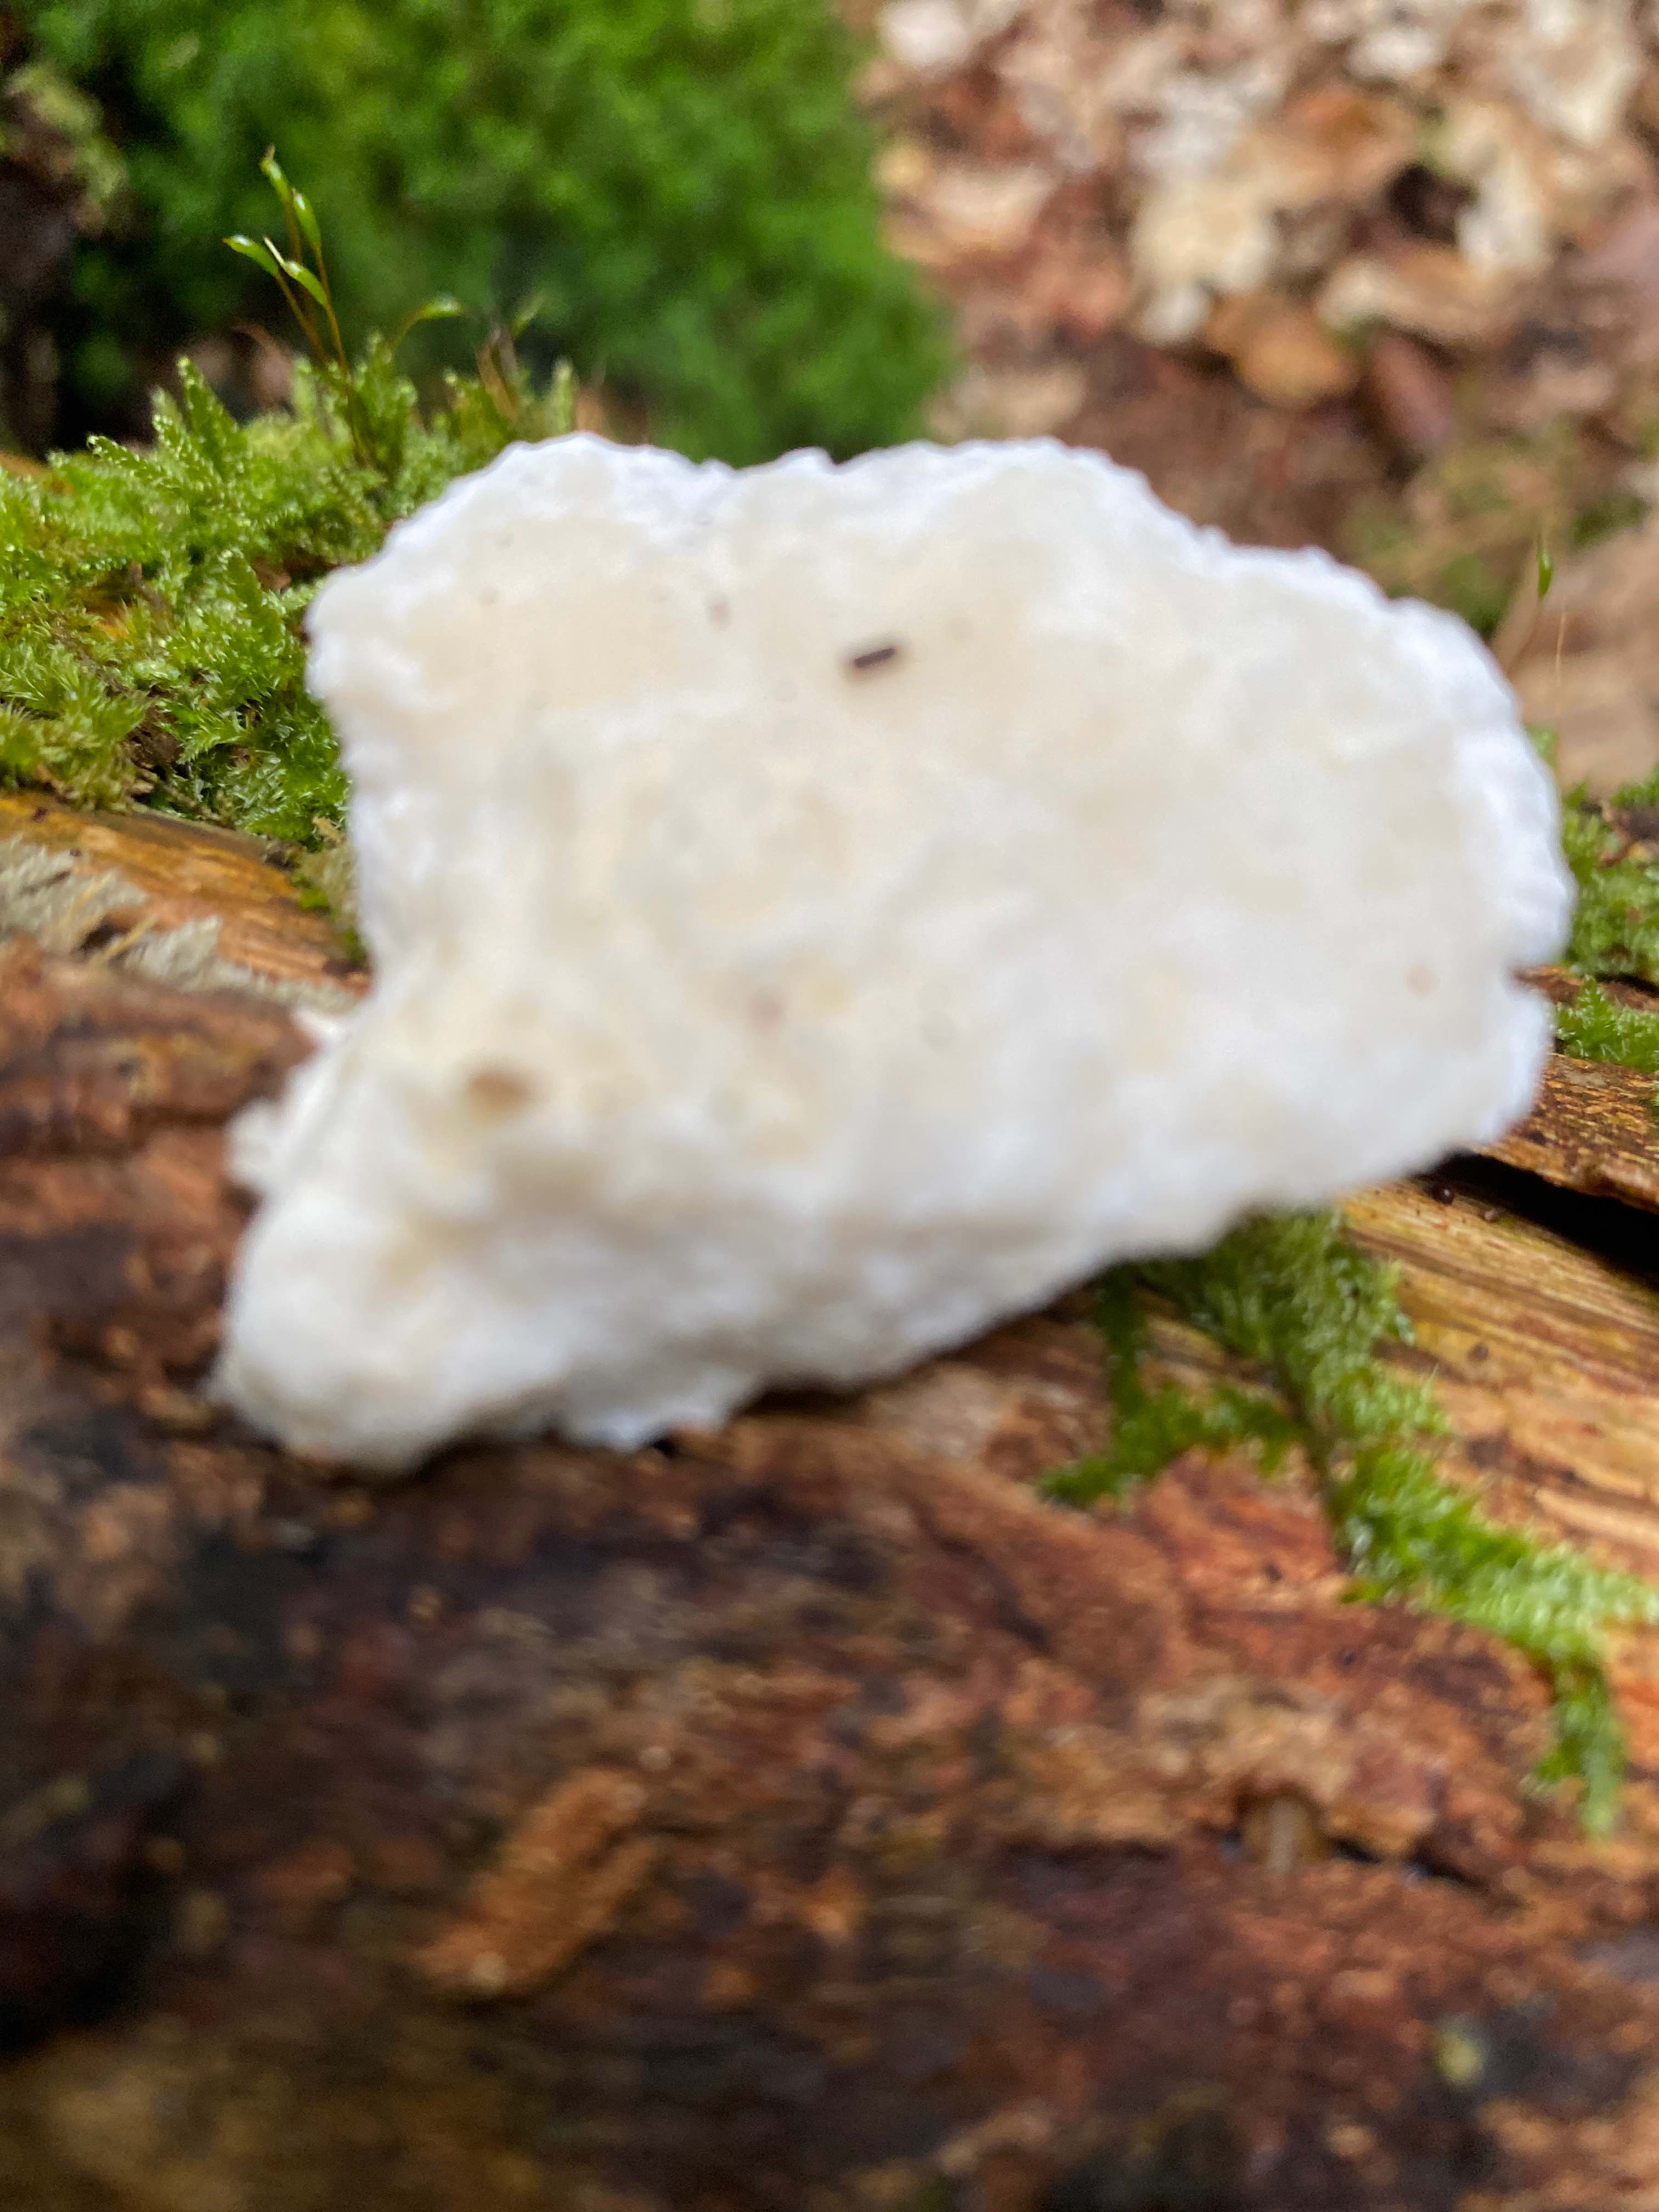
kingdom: Fungi
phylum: Basidiomycota
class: Agaricomycetes
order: Polyporales
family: Dacryobolaceae
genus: Postia
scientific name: Postia ptychogaster
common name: støvende kødporesvamp
